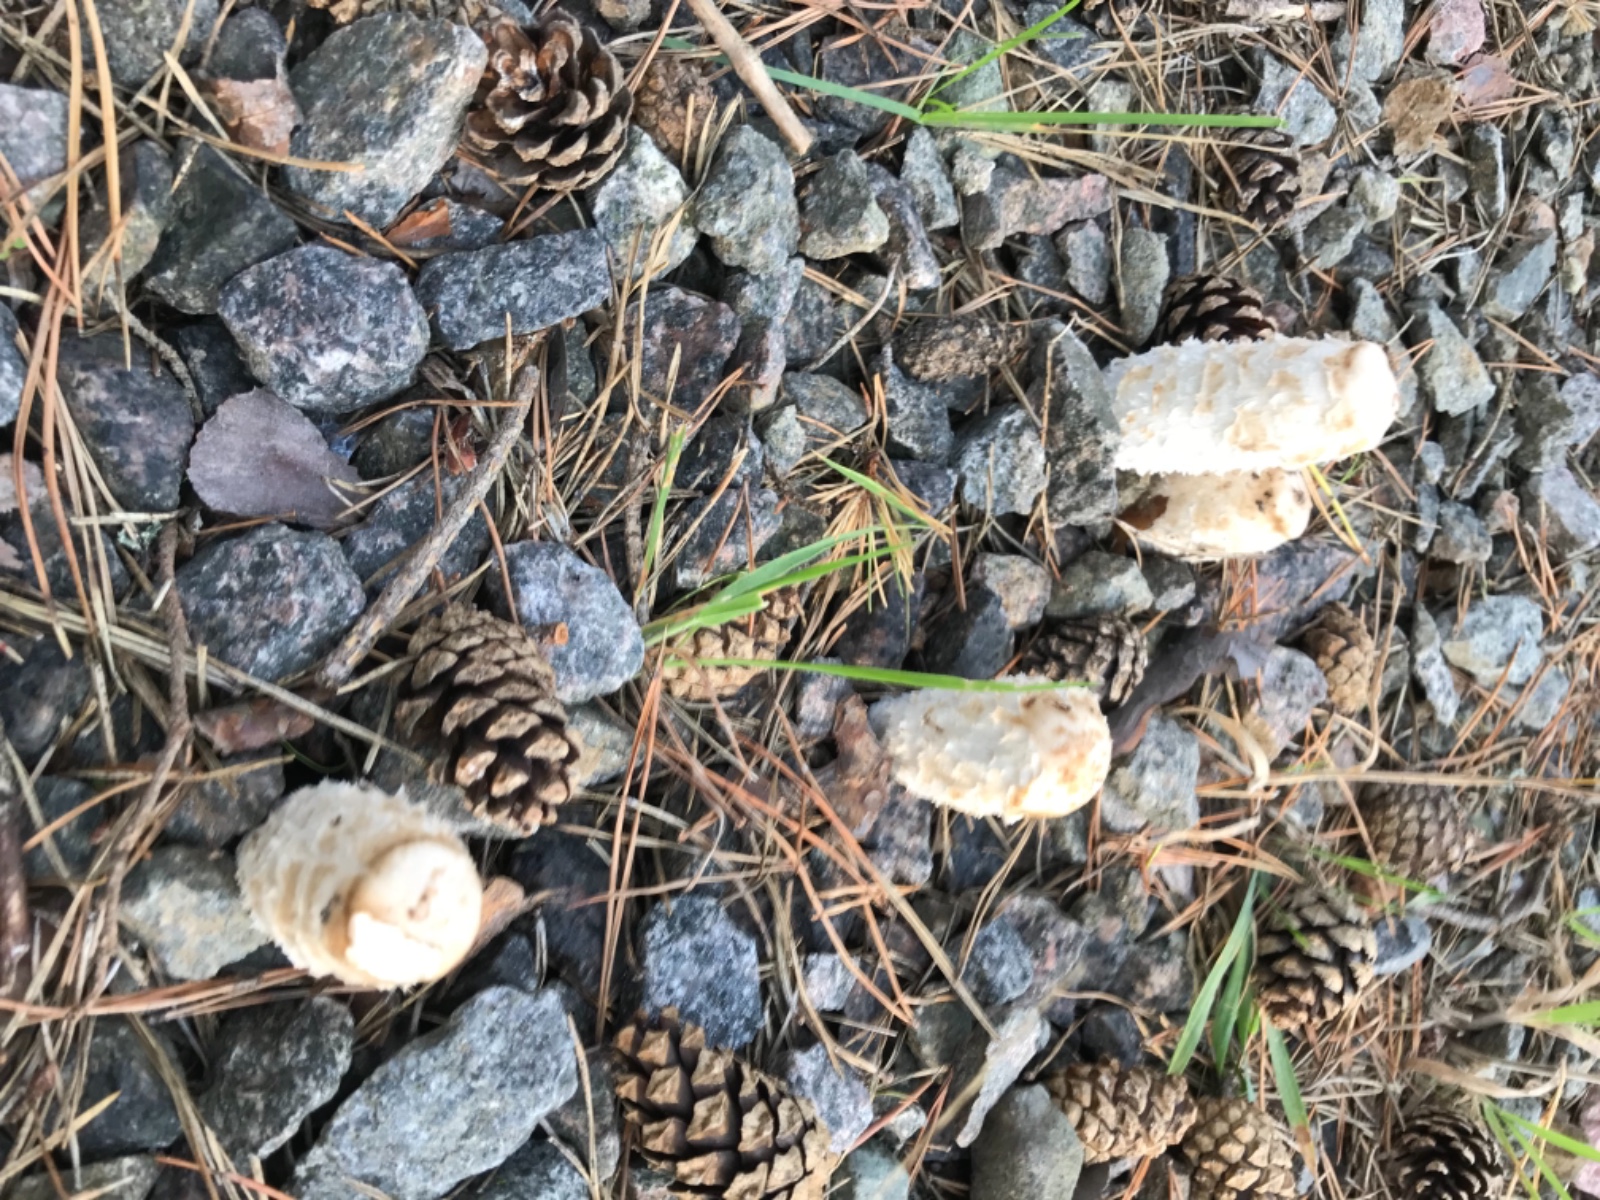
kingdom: Fungi
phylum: Basidiomycota
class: Agaricomycetes
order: Agaricales
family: Agaricaceae
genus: Coprinus
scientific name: Coprinus comatus
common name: stor parykhat
